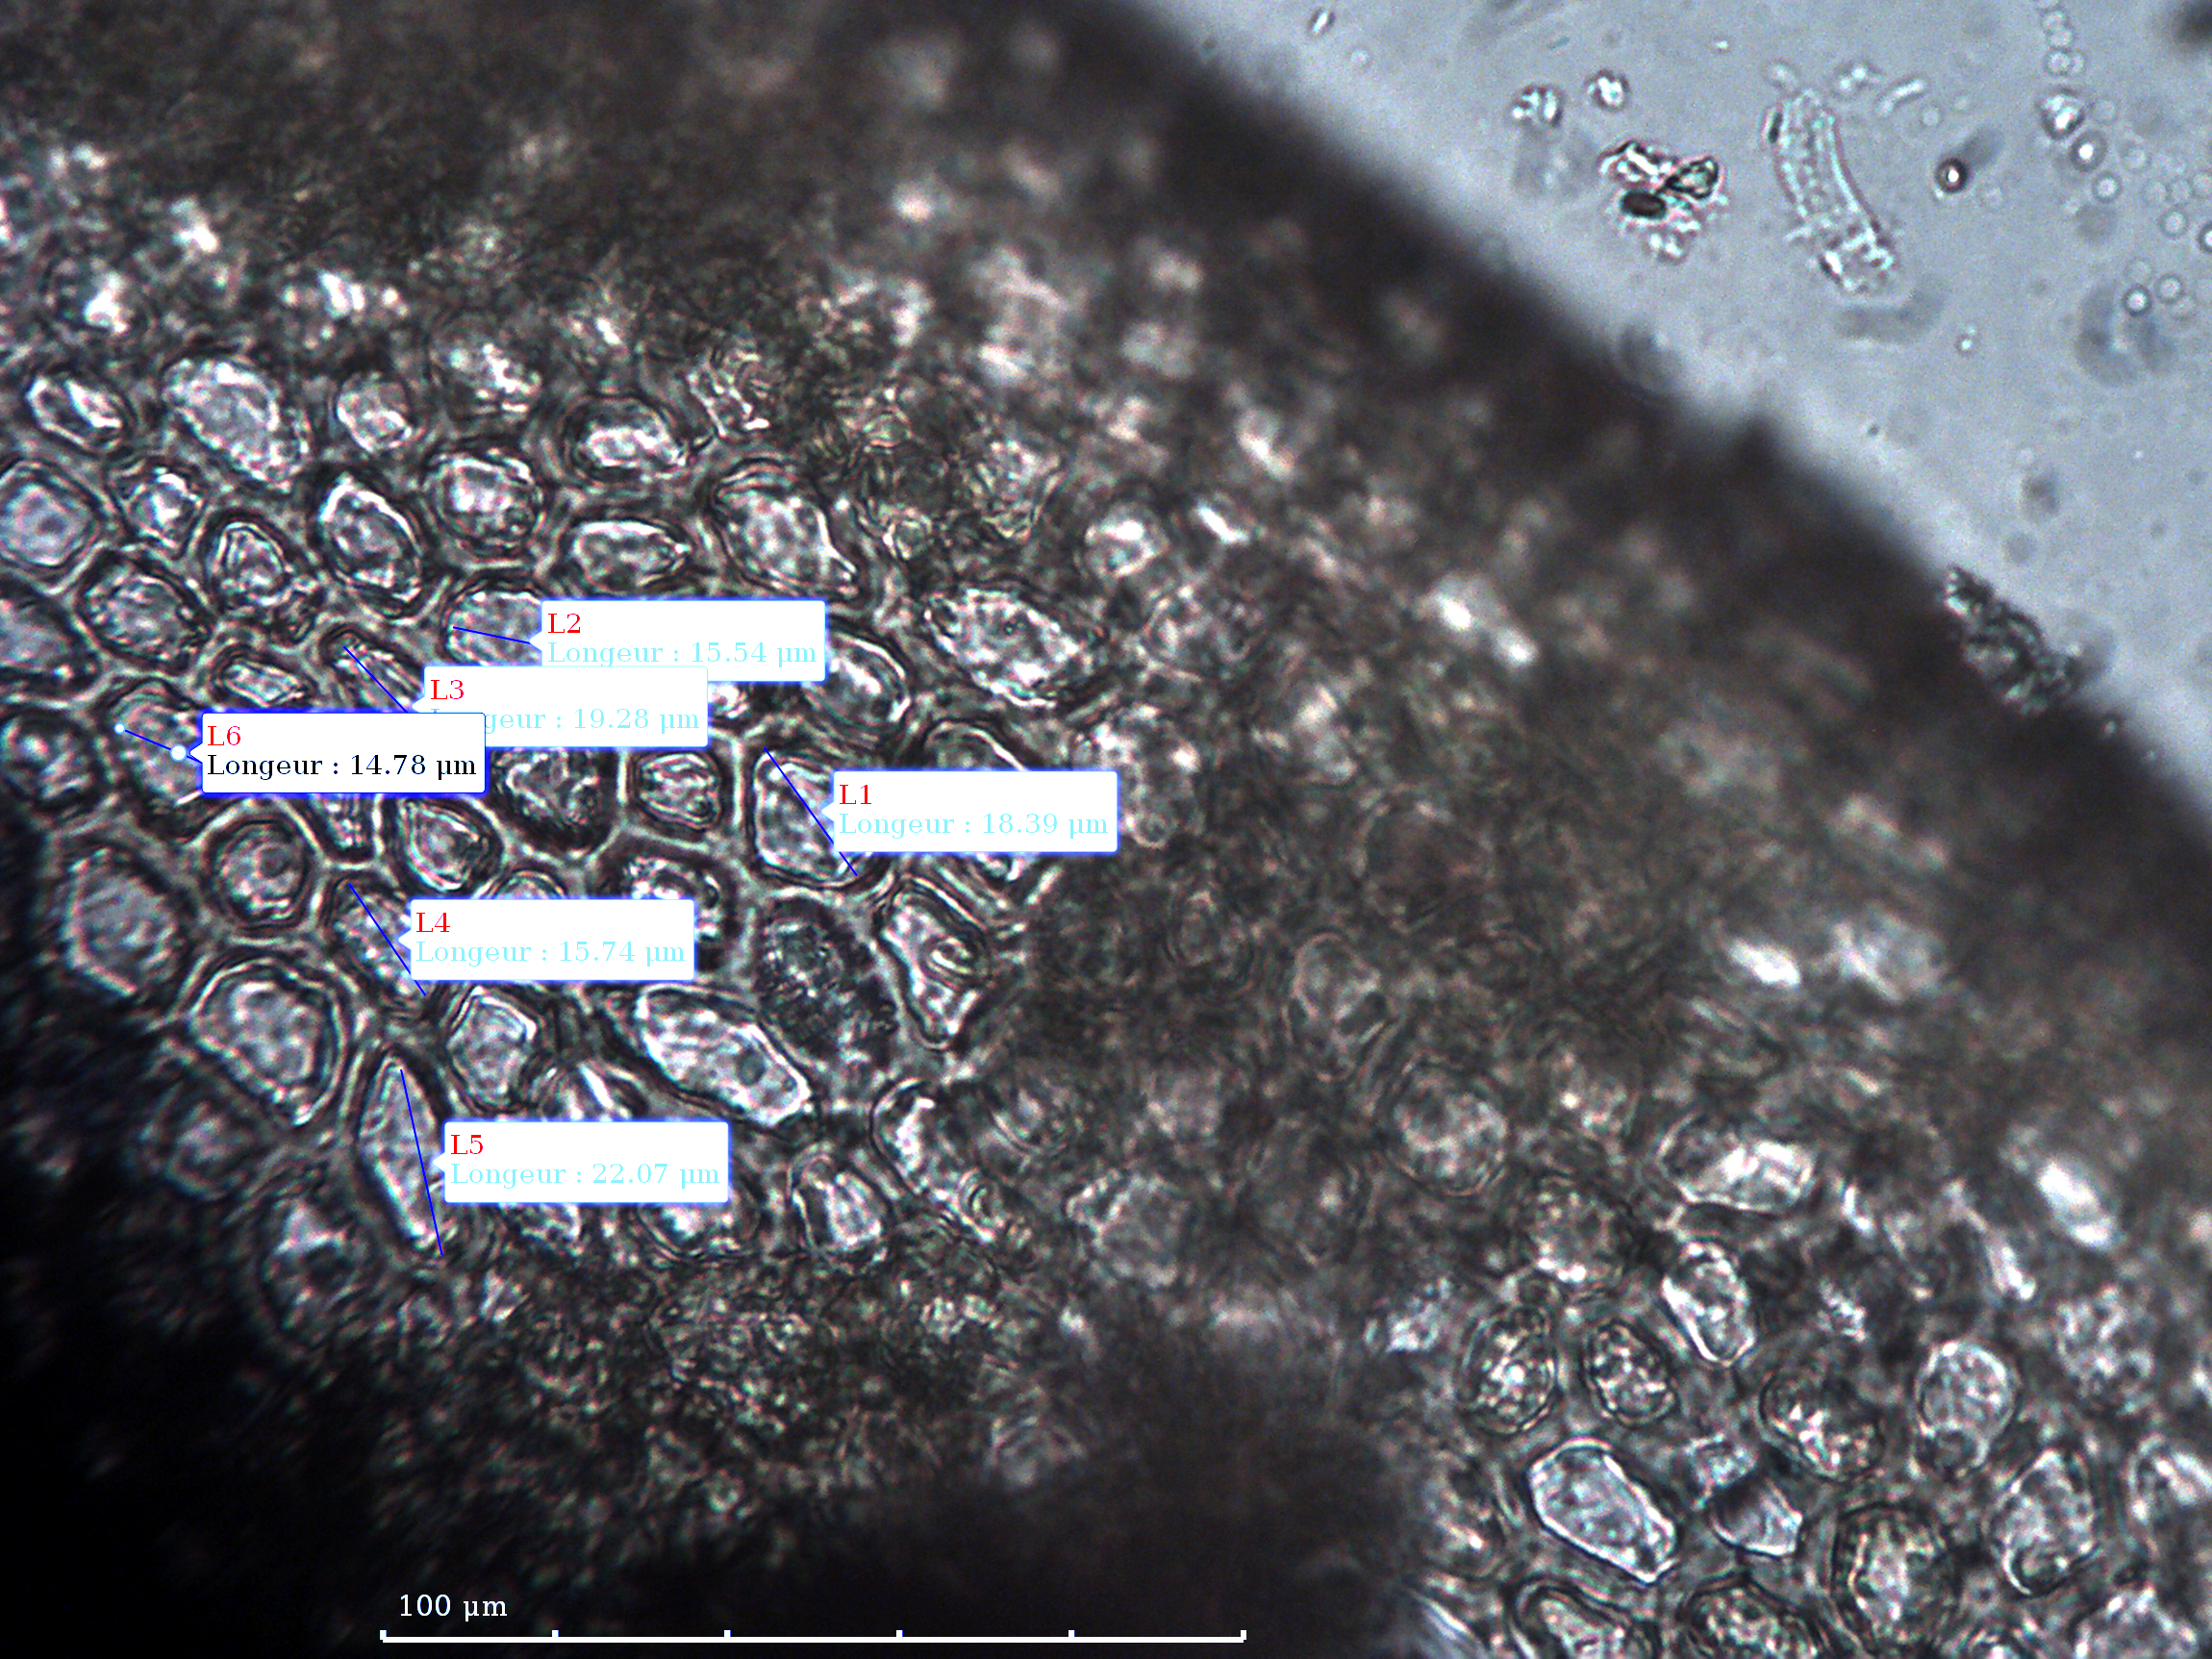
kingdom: Plantae
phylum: Marchantiophyta
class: Jungermanniopsida
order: Jungermanniales
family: Plagiochilaceae
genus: Plagiochila
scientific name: Plagiochila angusta
